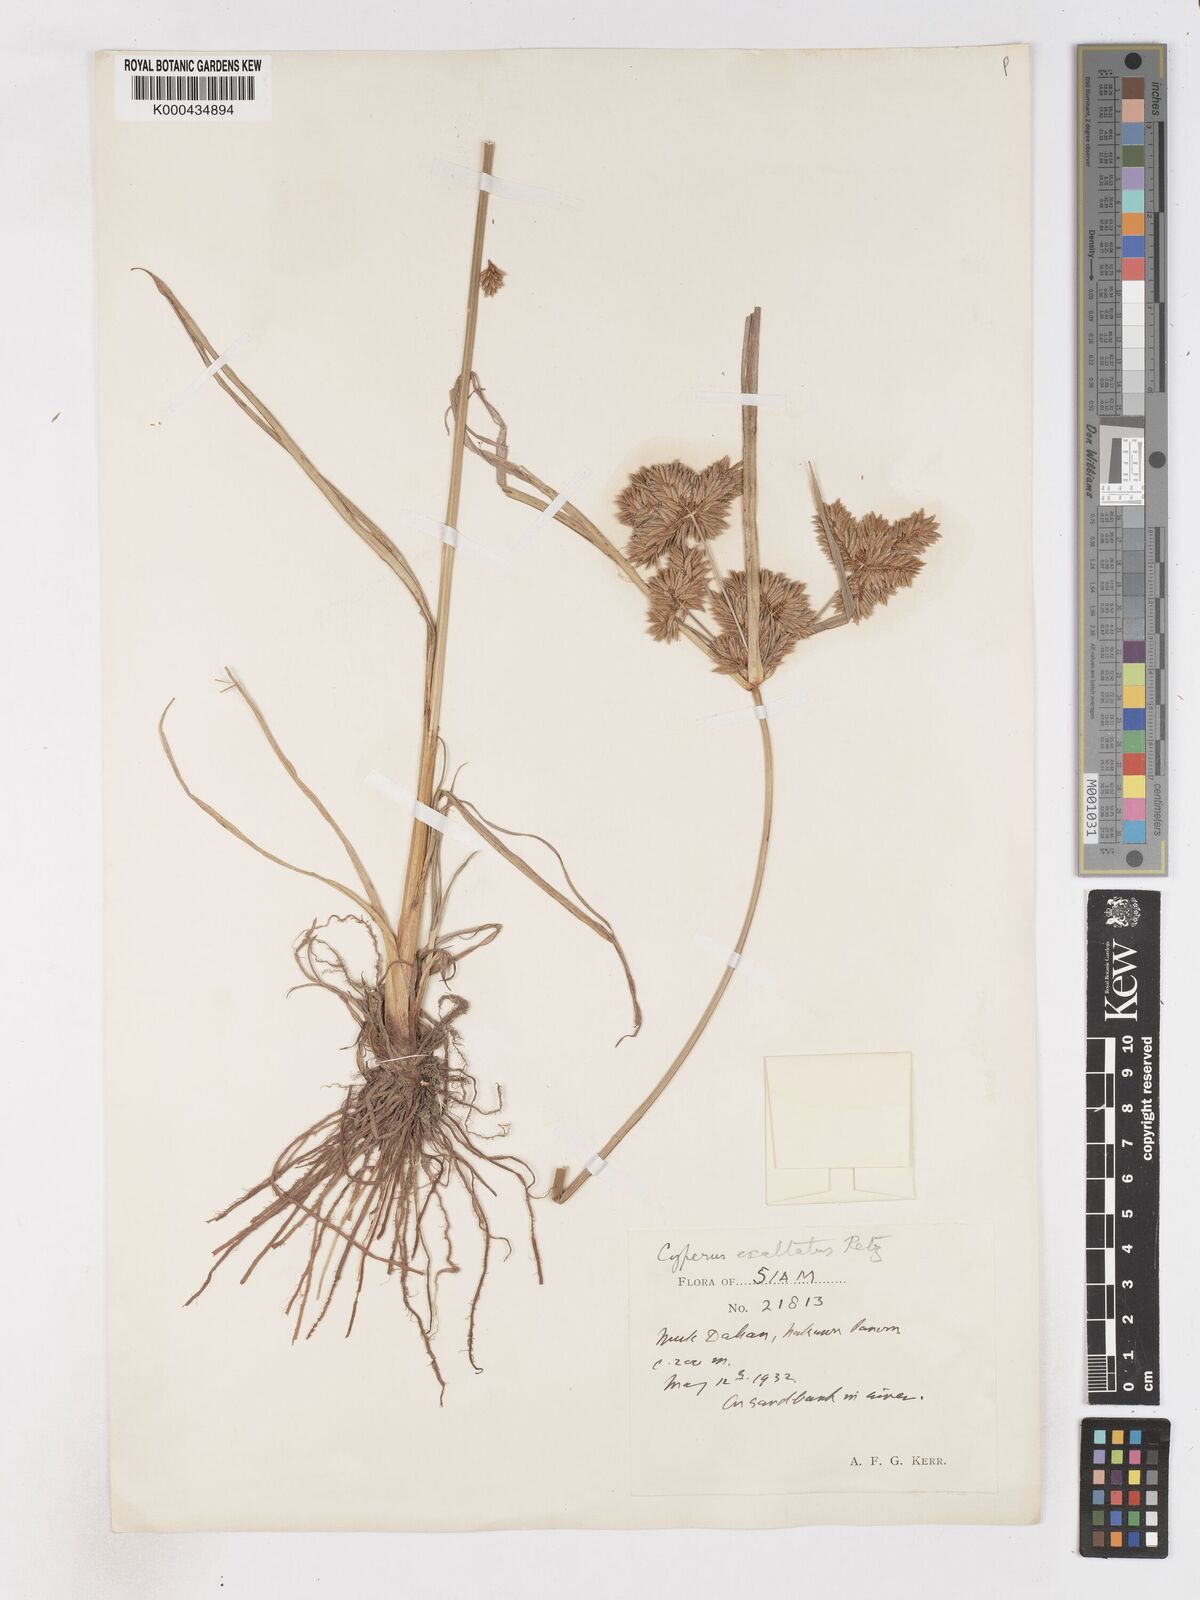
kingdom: Plantae
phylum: Tracheophyta
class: Liliopsida
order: Poales
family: Cyperaceae
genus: Cyperus
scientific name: Cyperus exaltatus
